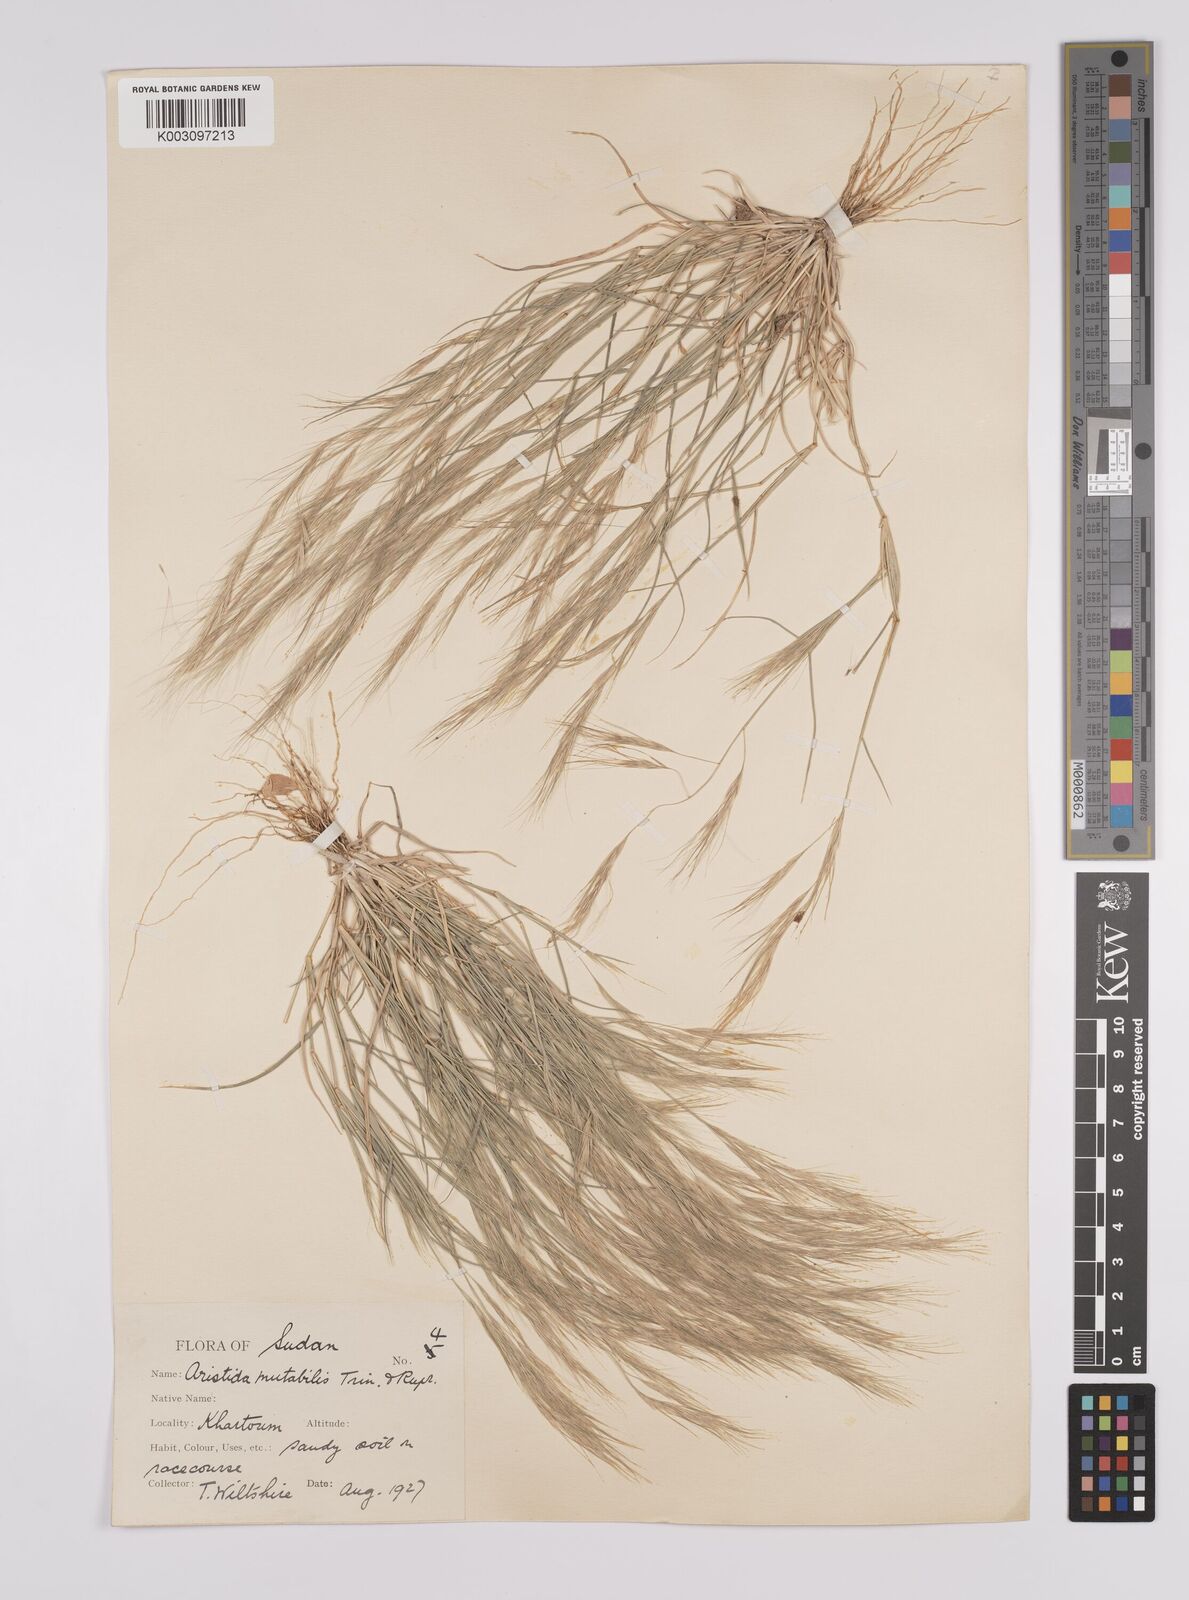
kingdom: Plantae
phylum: Tracheophyta
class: Liliopsida
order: Poales
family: Poaceae
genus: Aristida
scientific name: Aristida mutabilis
